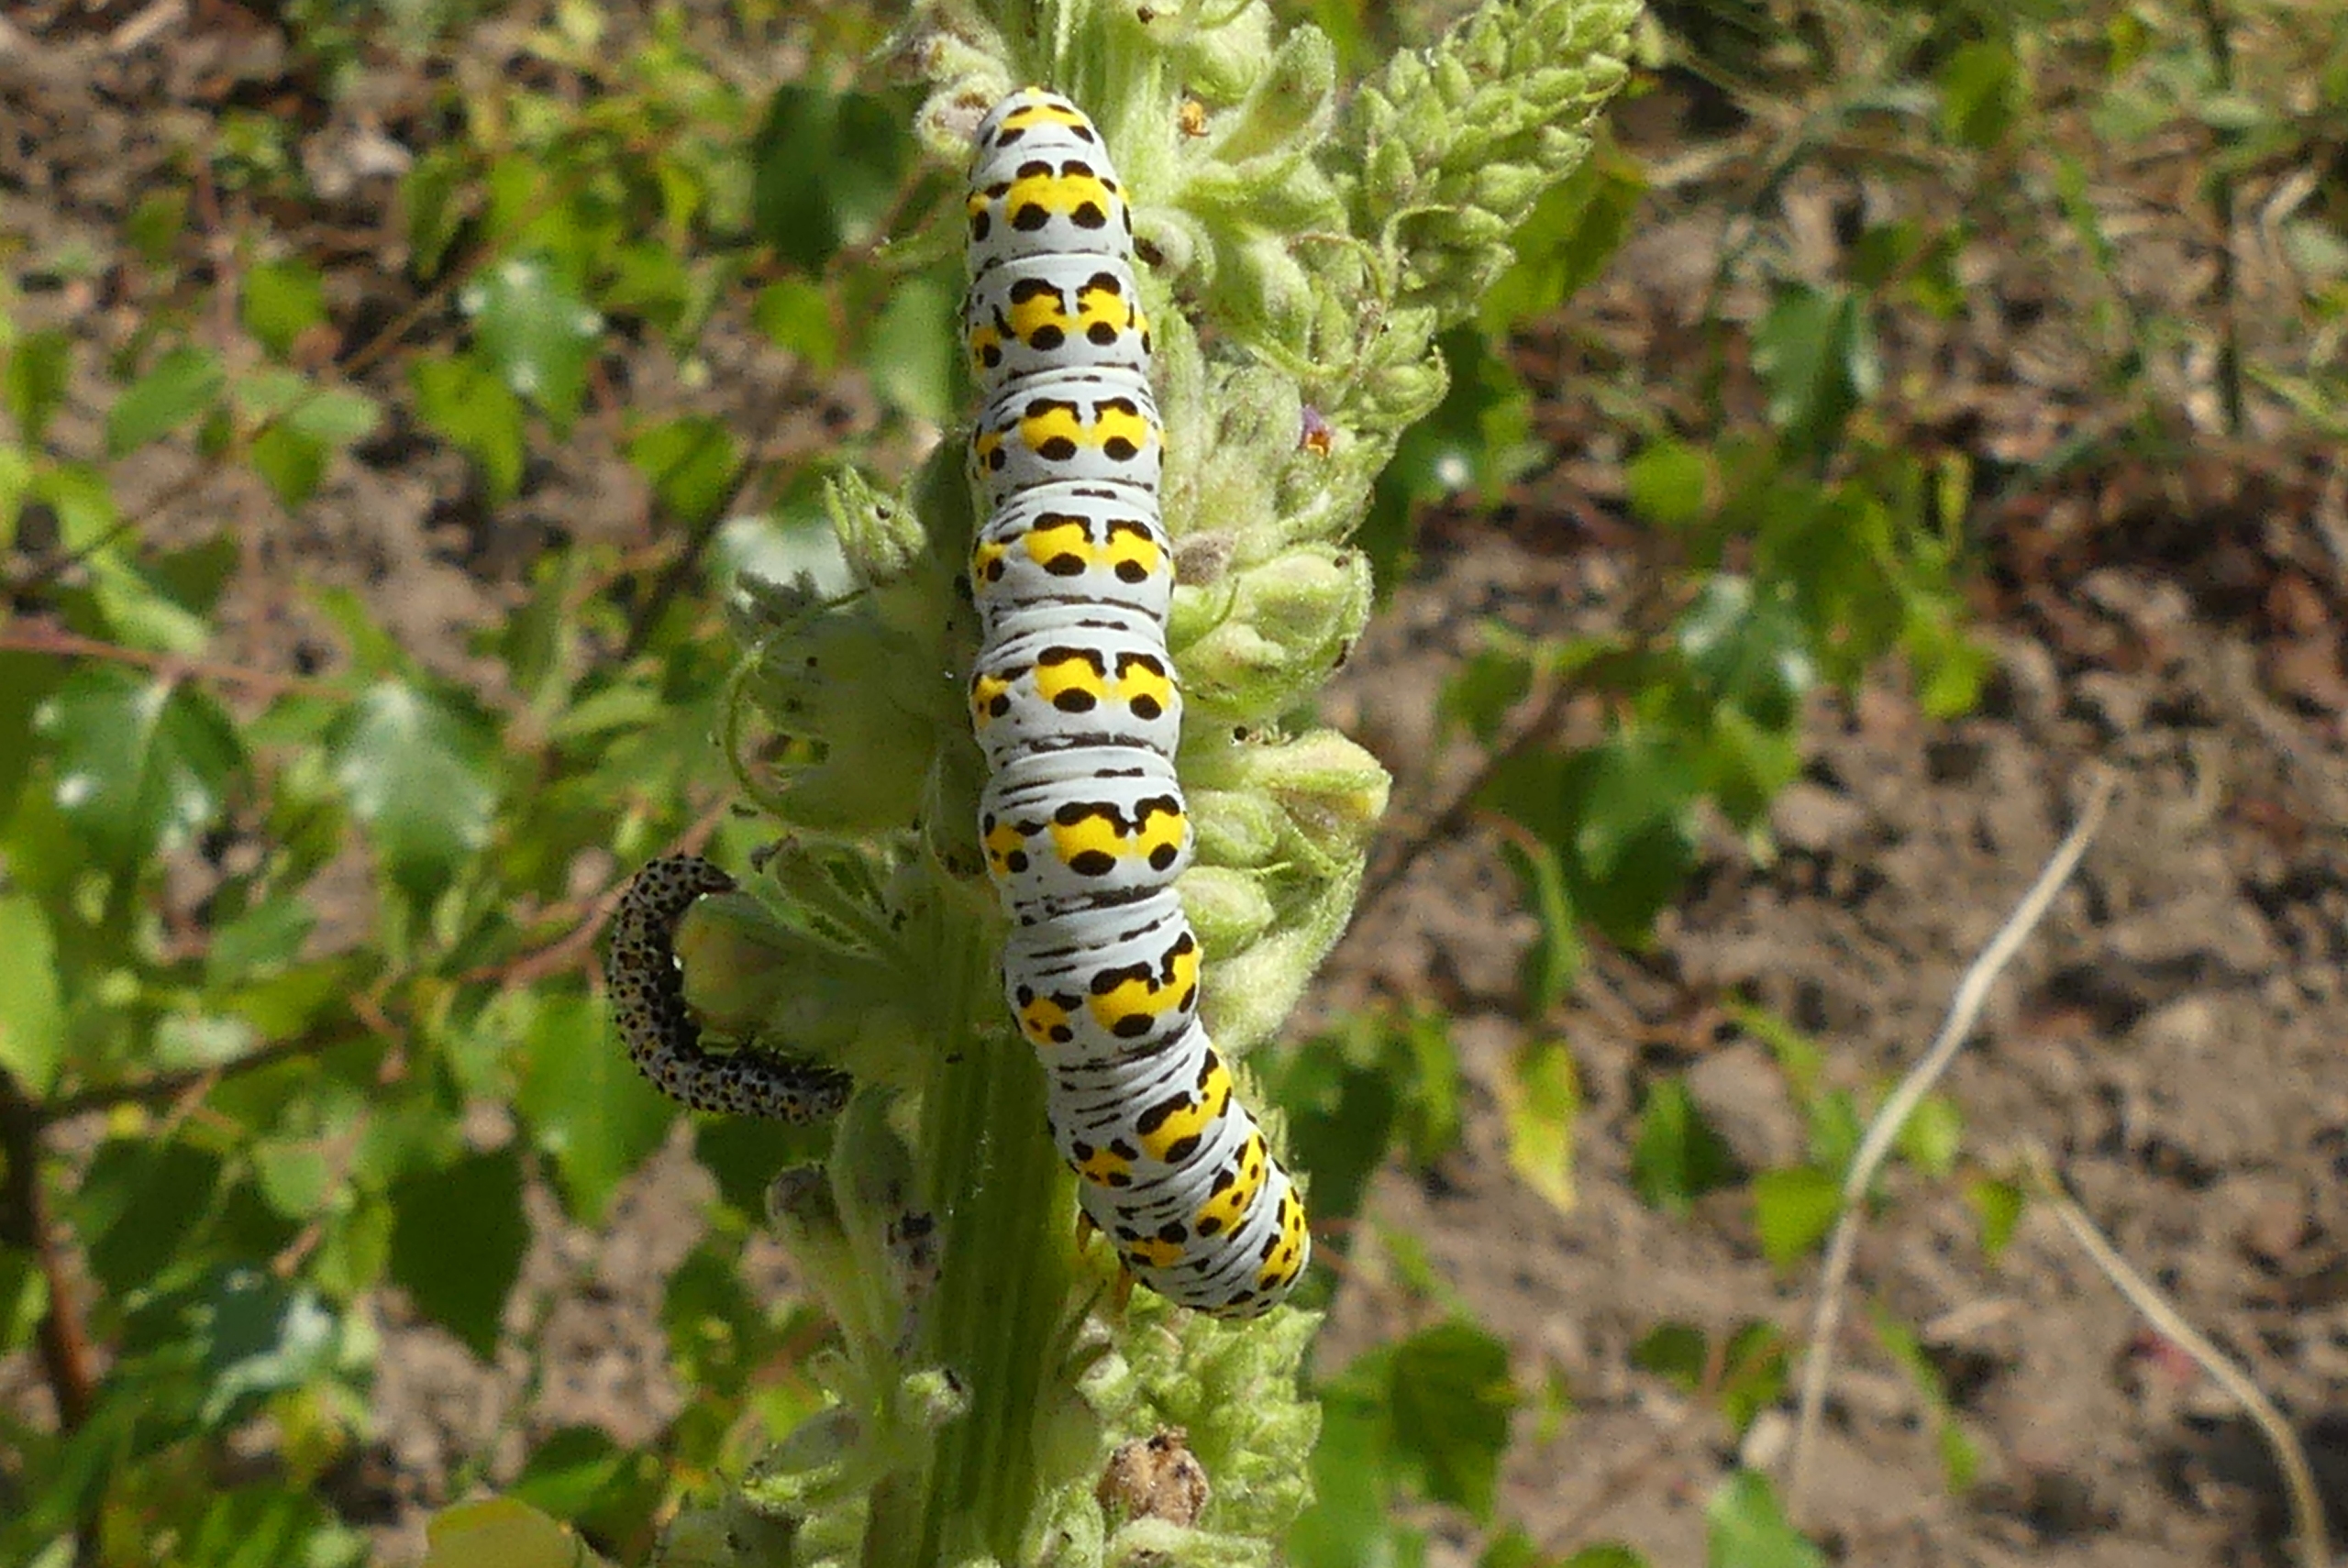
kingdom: Animalia
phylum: Arthropoda
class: Insecta
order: Lepidoptera
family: Noctuidae
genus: Cucullia
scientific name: Cucullia verbasci
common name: Filtbladet kongelys-hætteugle
